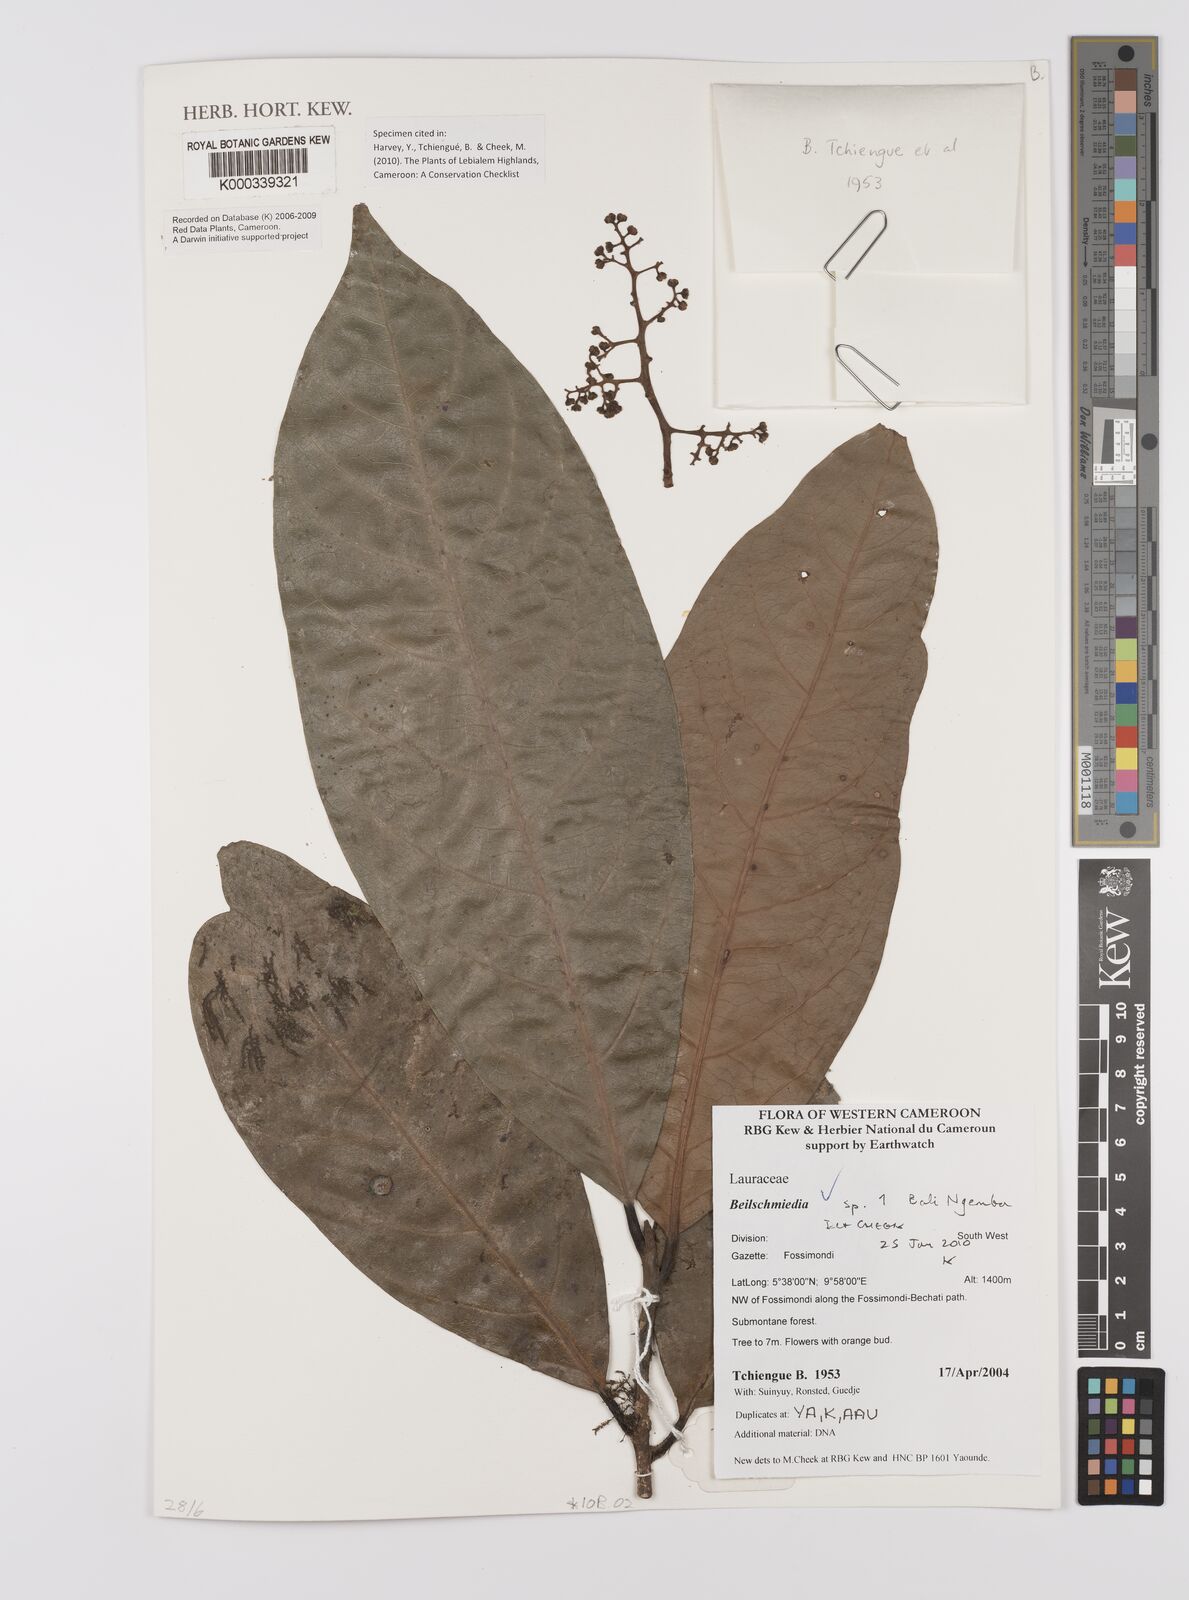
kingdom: Plantae
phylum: Tracheophyta
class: Magnoliopsida
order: Laurales
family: Lauraceae
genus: Beilschmiedia
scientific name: Beilschmiedia
